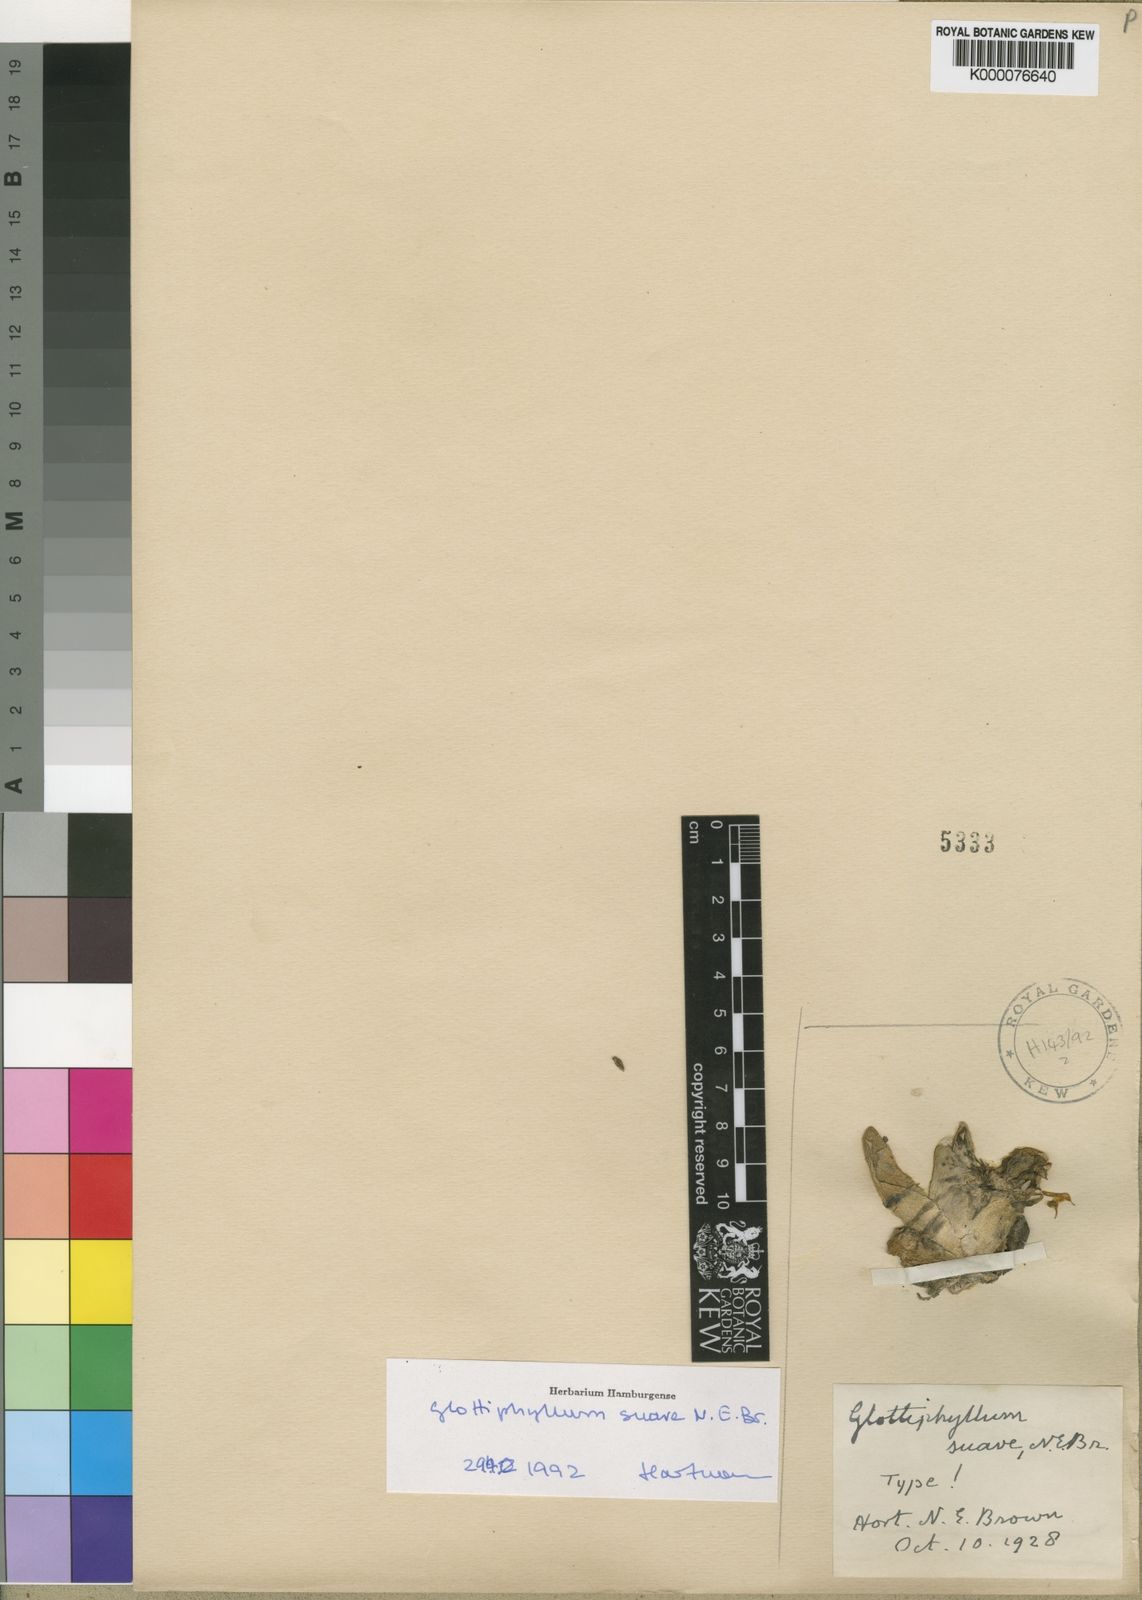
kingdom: Plantae
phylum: Tracheophyta
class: Magnoliopsida
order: Caryophyllales
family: Aizoaceae
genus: Glottiphyllum
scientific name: Glottiphyllum suave
